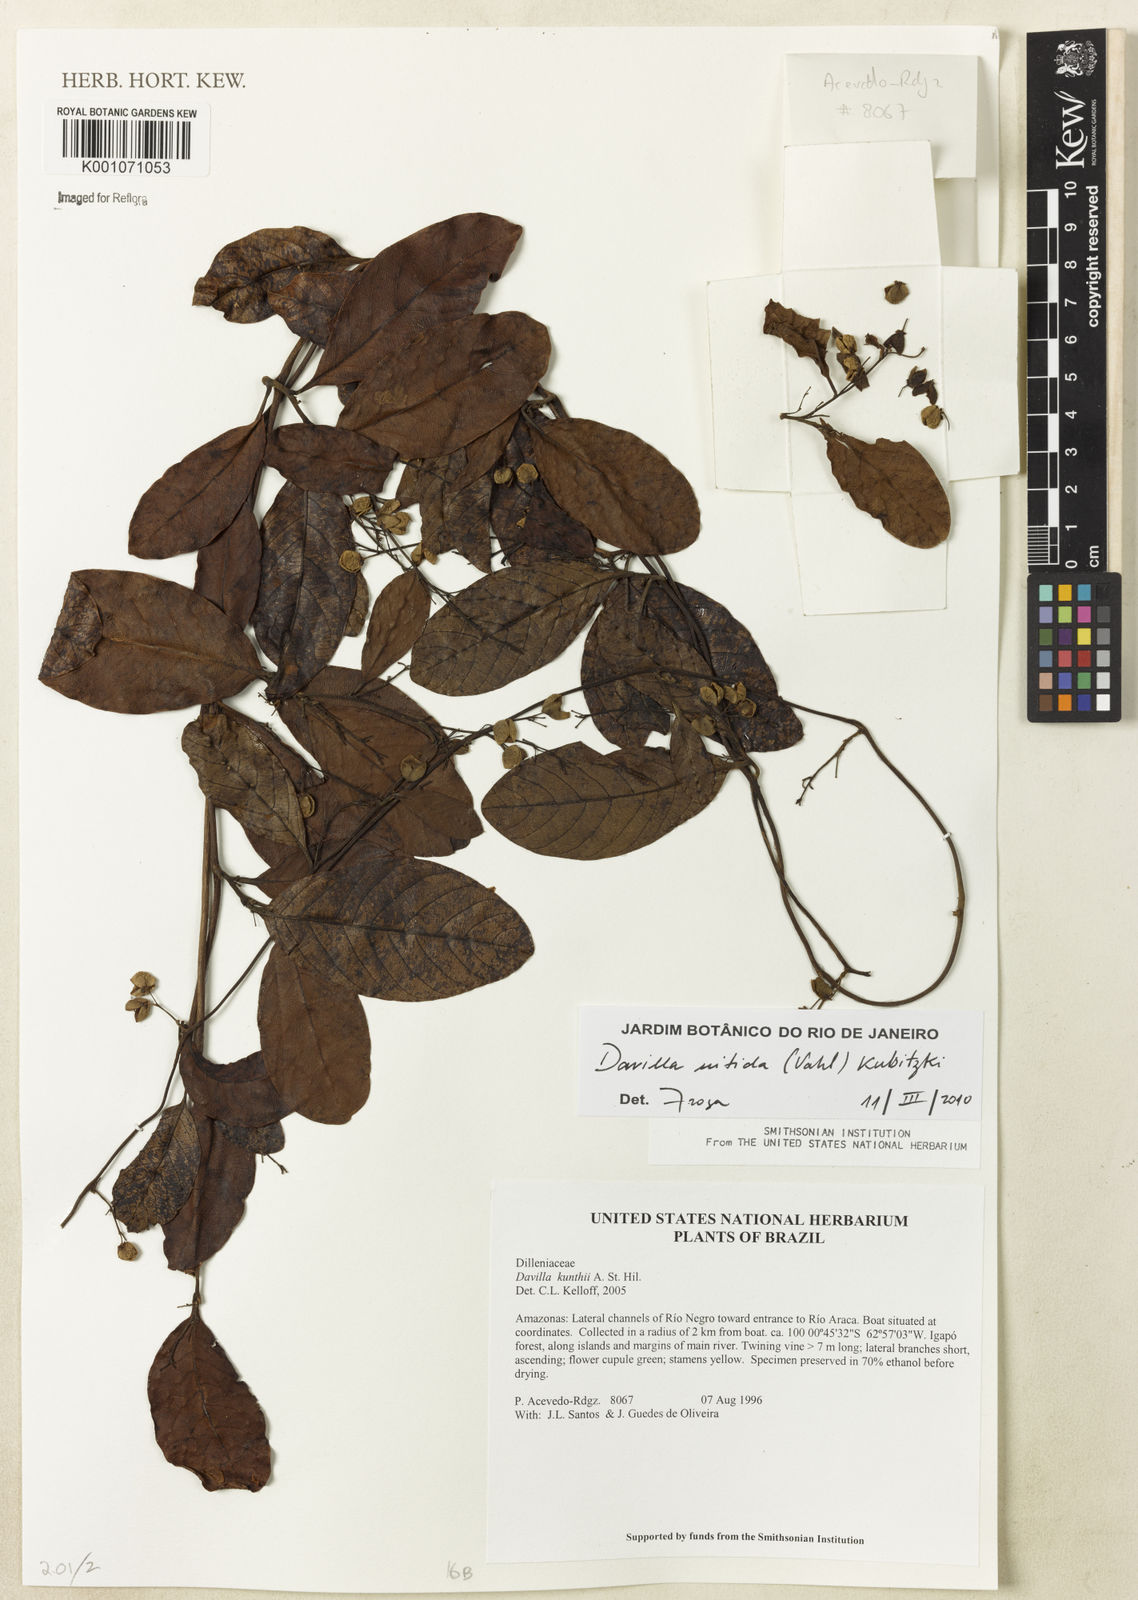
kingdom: Plantae
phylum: Tracheophyta
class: Magnoliopsida
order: Dilleniales
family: Dilleniaceae
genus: Davilla
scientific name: Davilla kunthii
